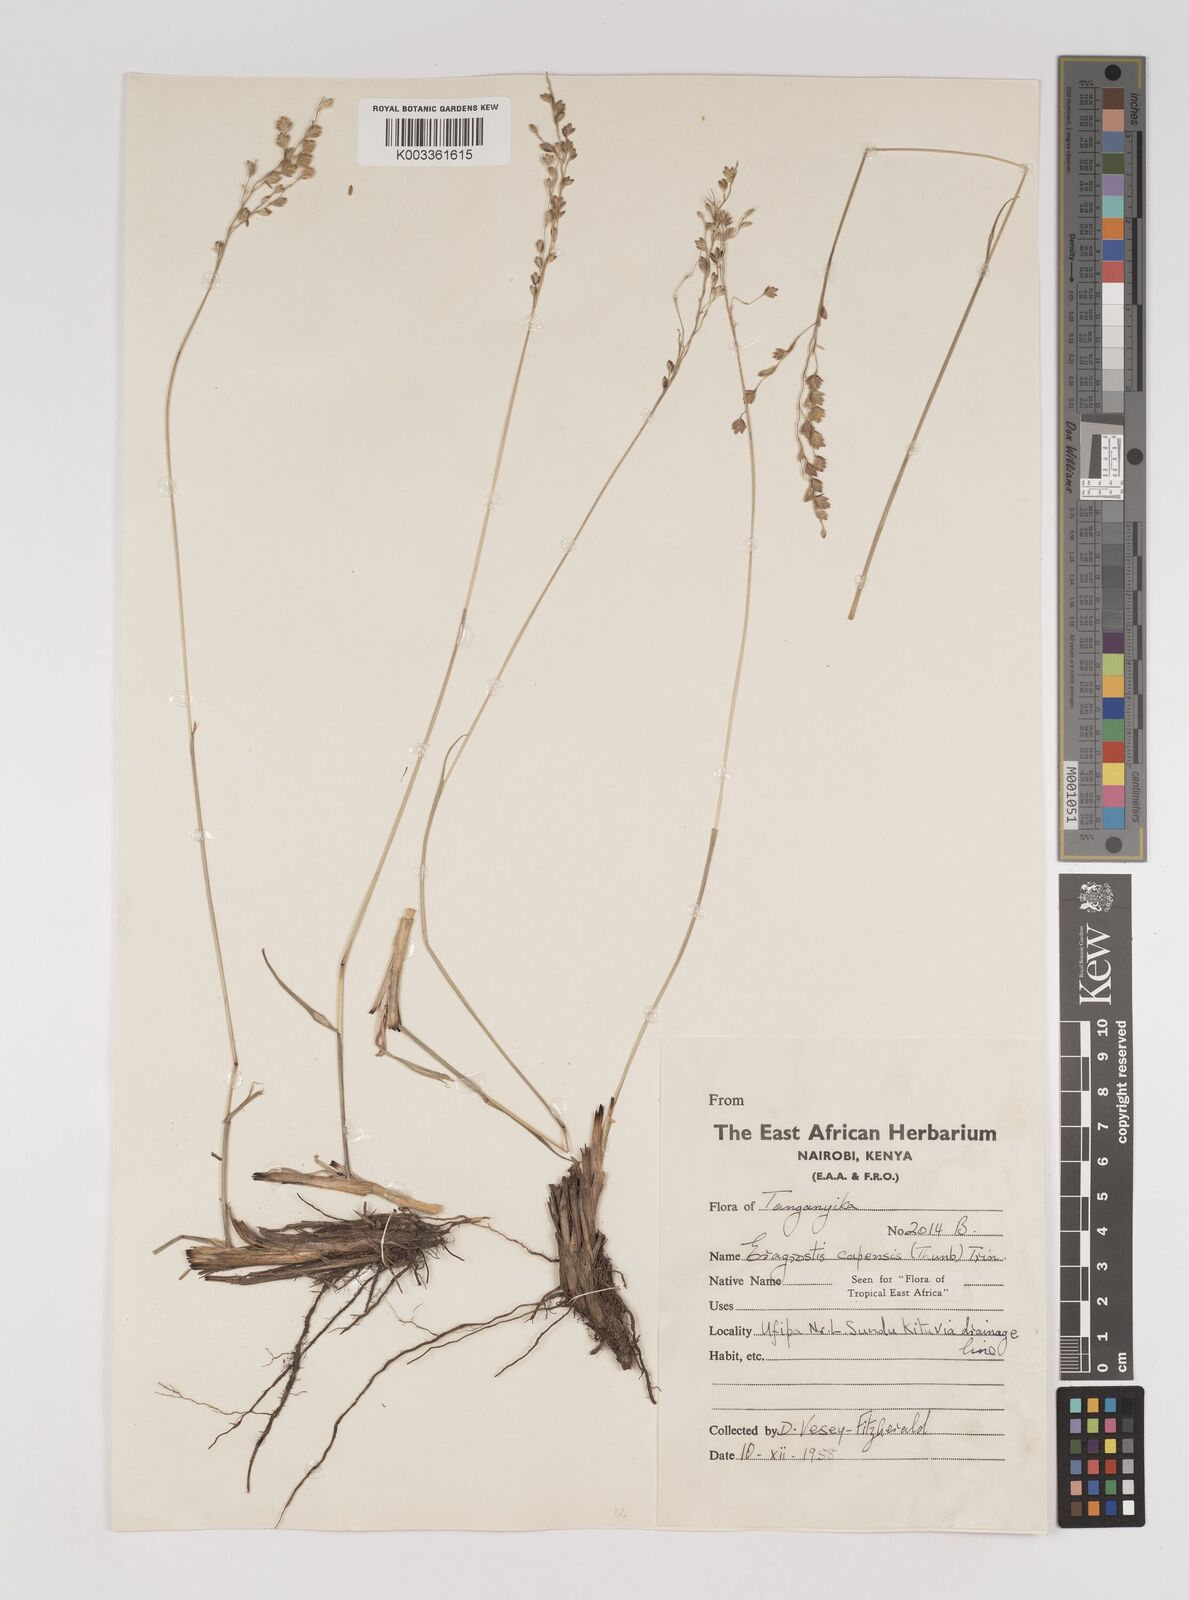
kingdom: Plantae
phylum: Tracheophyta
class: Liliopsida
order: Poales
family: Poaceae
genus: Eragrostis
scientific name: Eragrostis capensis
